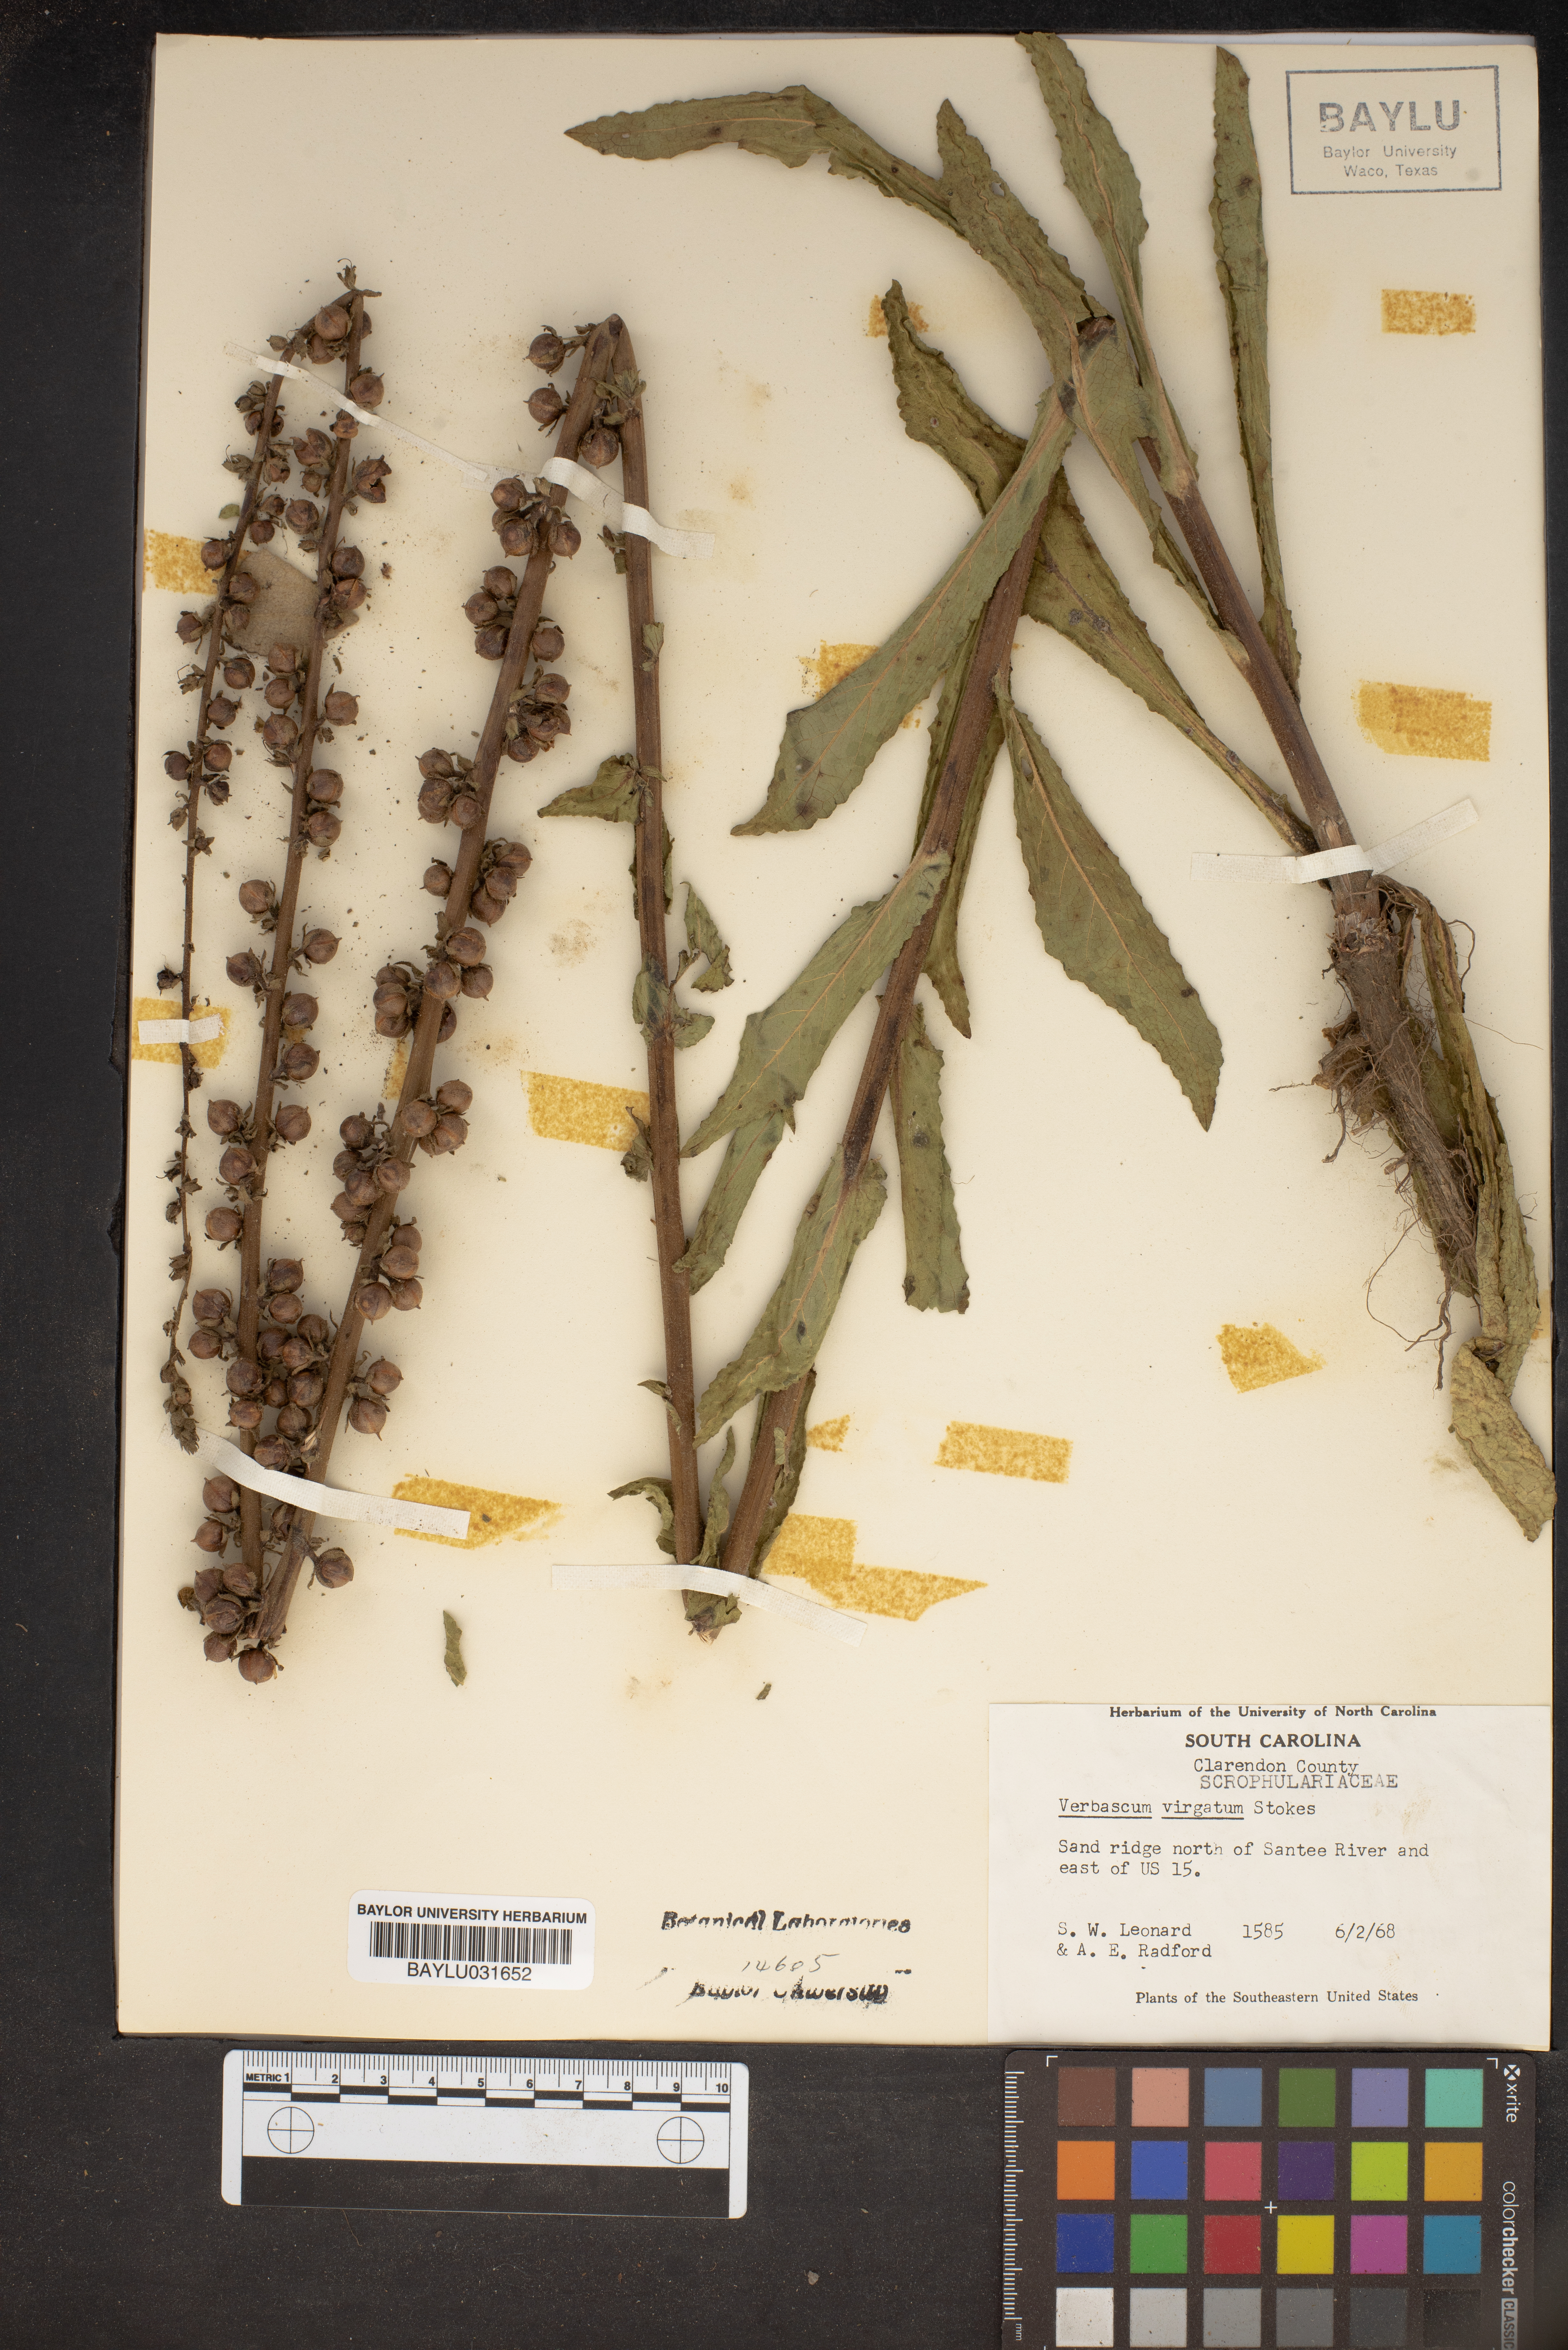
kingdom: Plantae
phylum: Tracheophyta
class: Magnoliopsida
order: Lamiales
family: Scrophulariaceae
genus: Verbascum
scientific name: Verbascum virgatum
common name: Twiggy mullein
